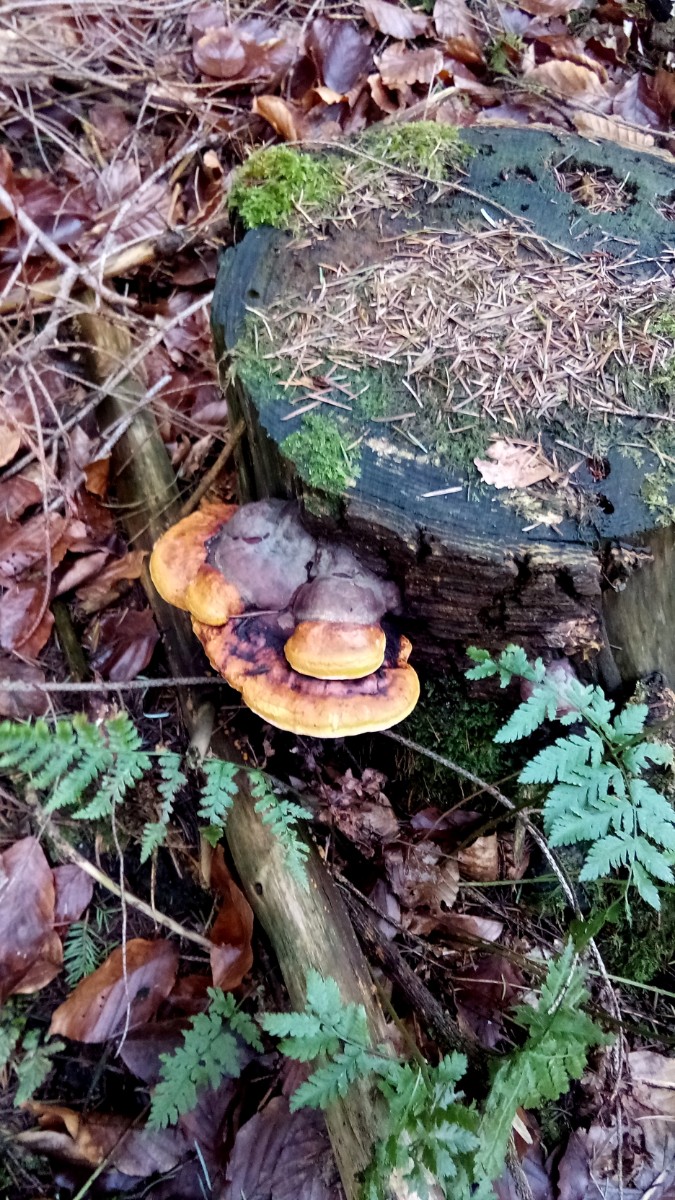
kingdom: Fungi
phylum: Basidiomycota
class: Agaricomycetes
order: Polyporales
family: Fomitopsidaceae
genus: Fomitopsis
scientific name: Fomitopsis pinicola
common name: randbæltet hovporesvamp
